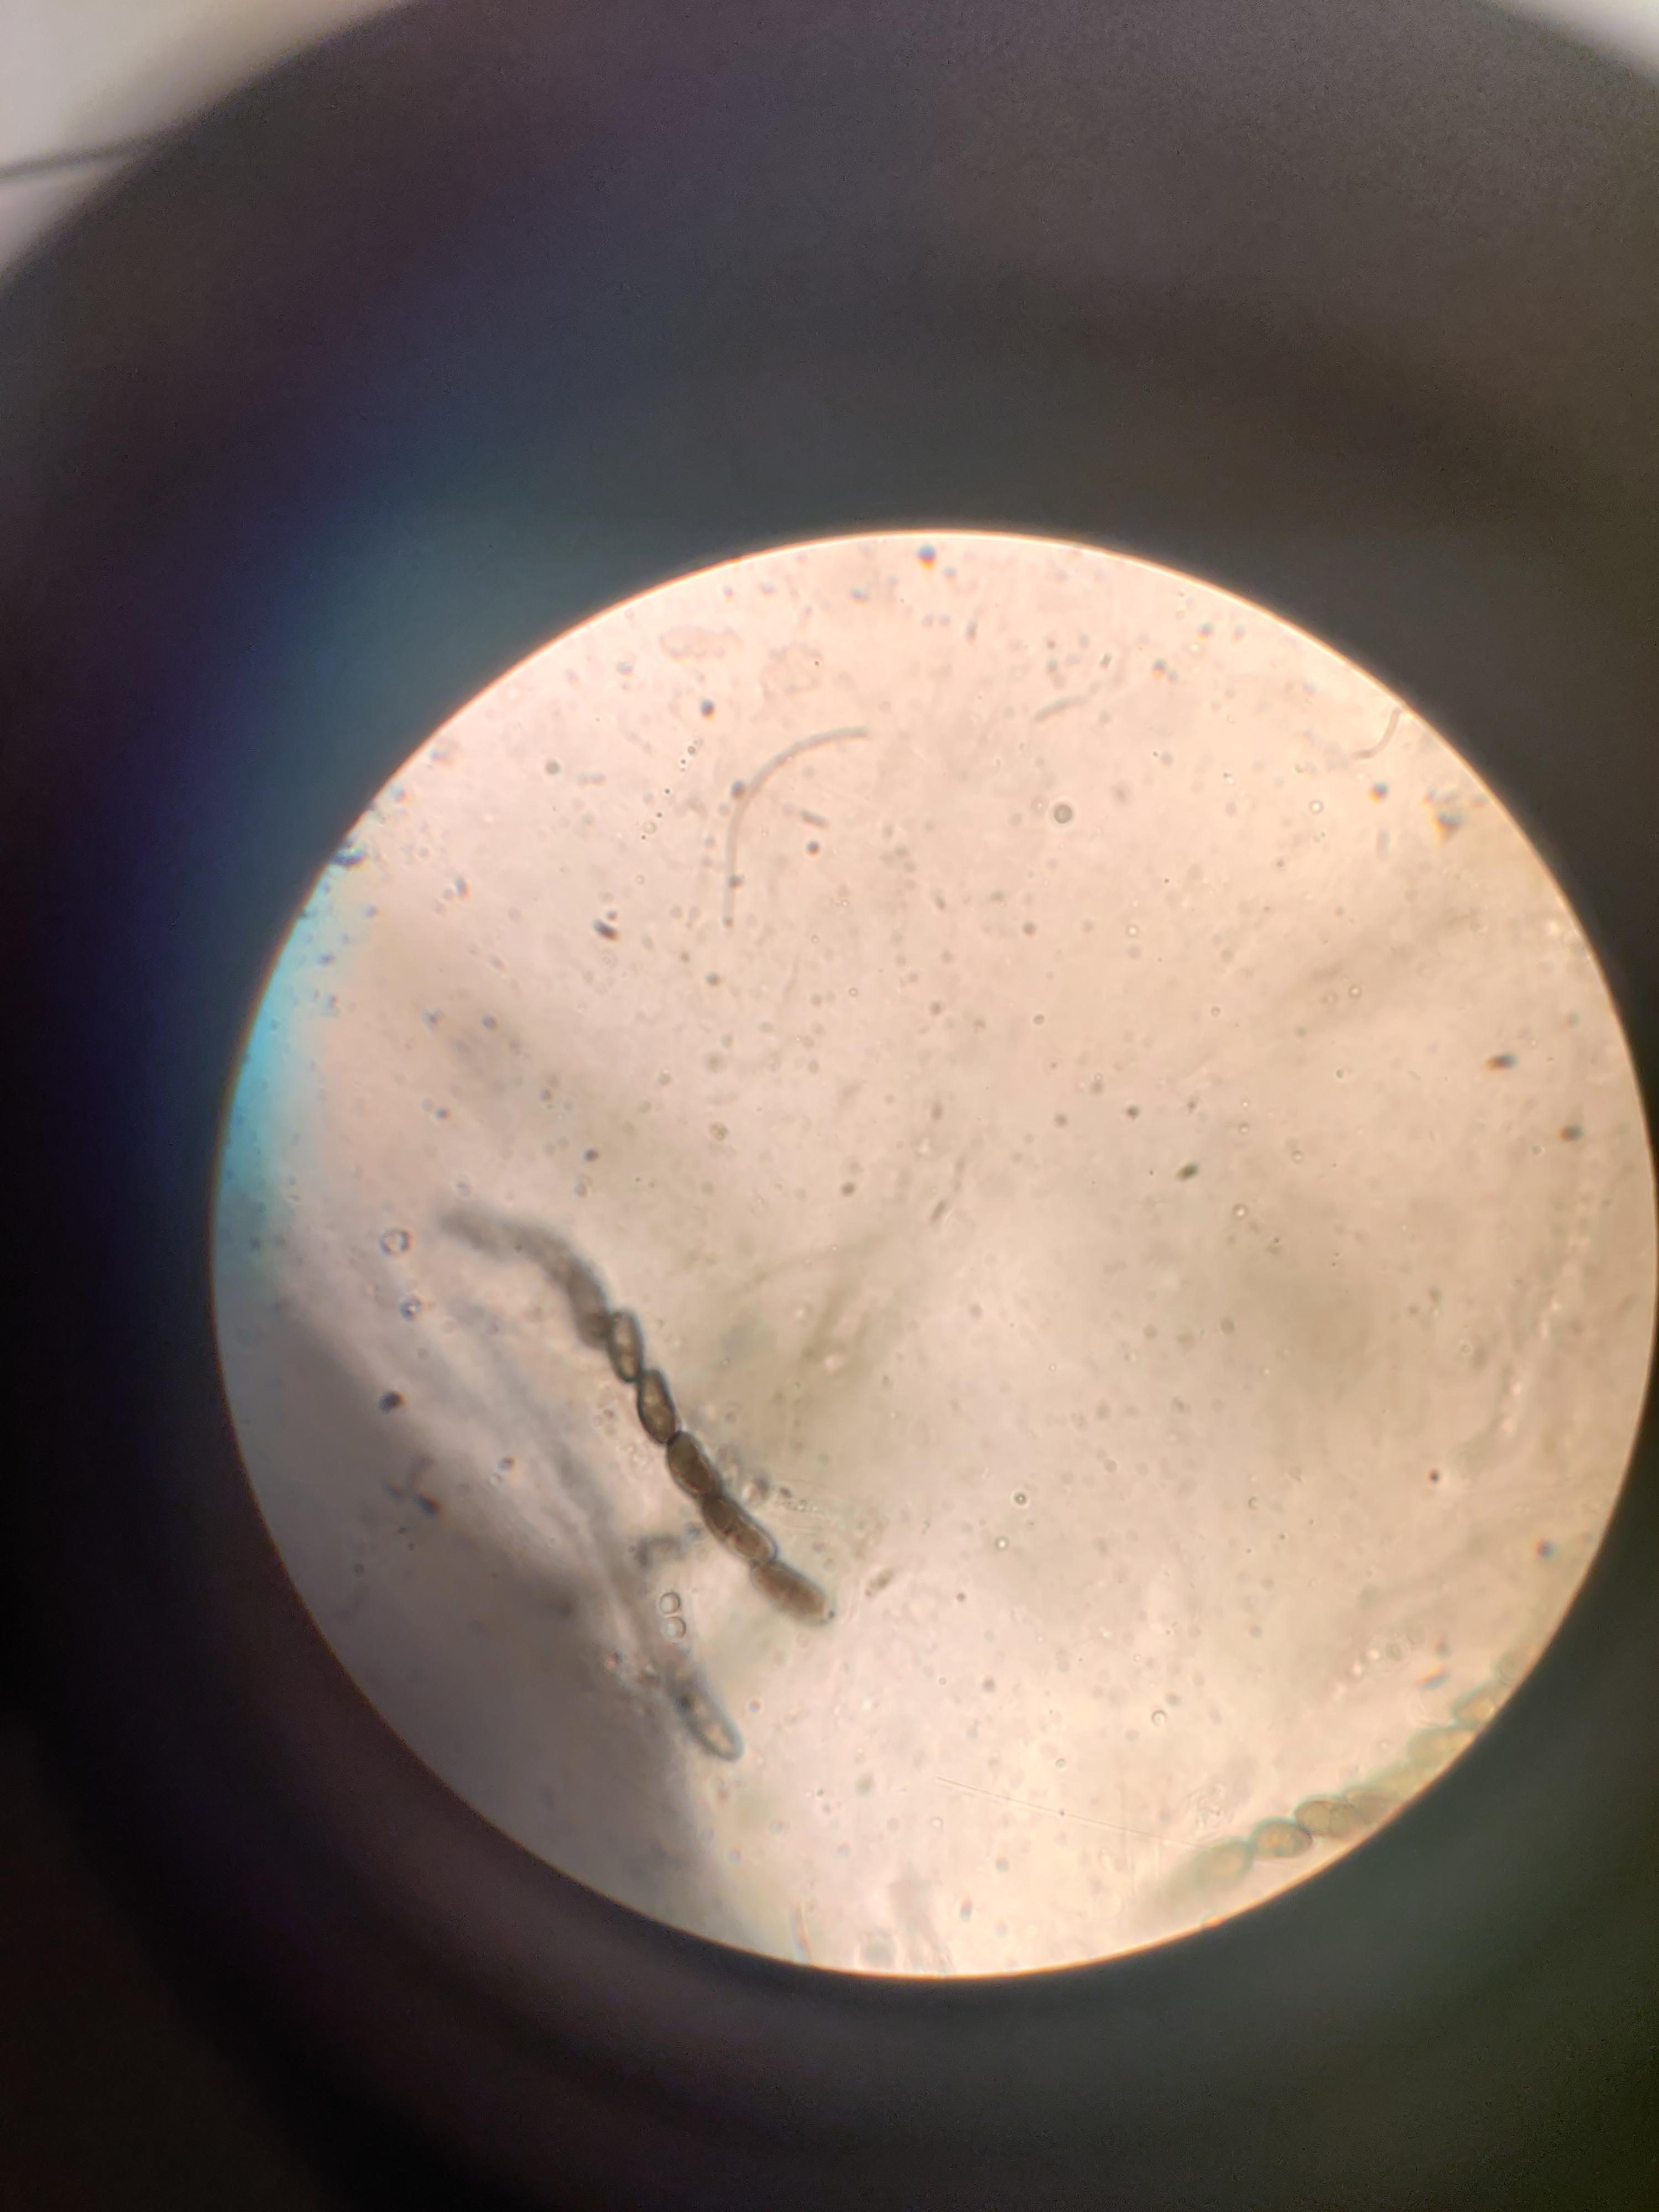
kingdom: Fungi
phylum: Ascomycota
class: Sordariomycetes
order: Xylariales
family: Xylariaceae
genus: Nemania
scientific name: Nemania
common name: kuldyne
